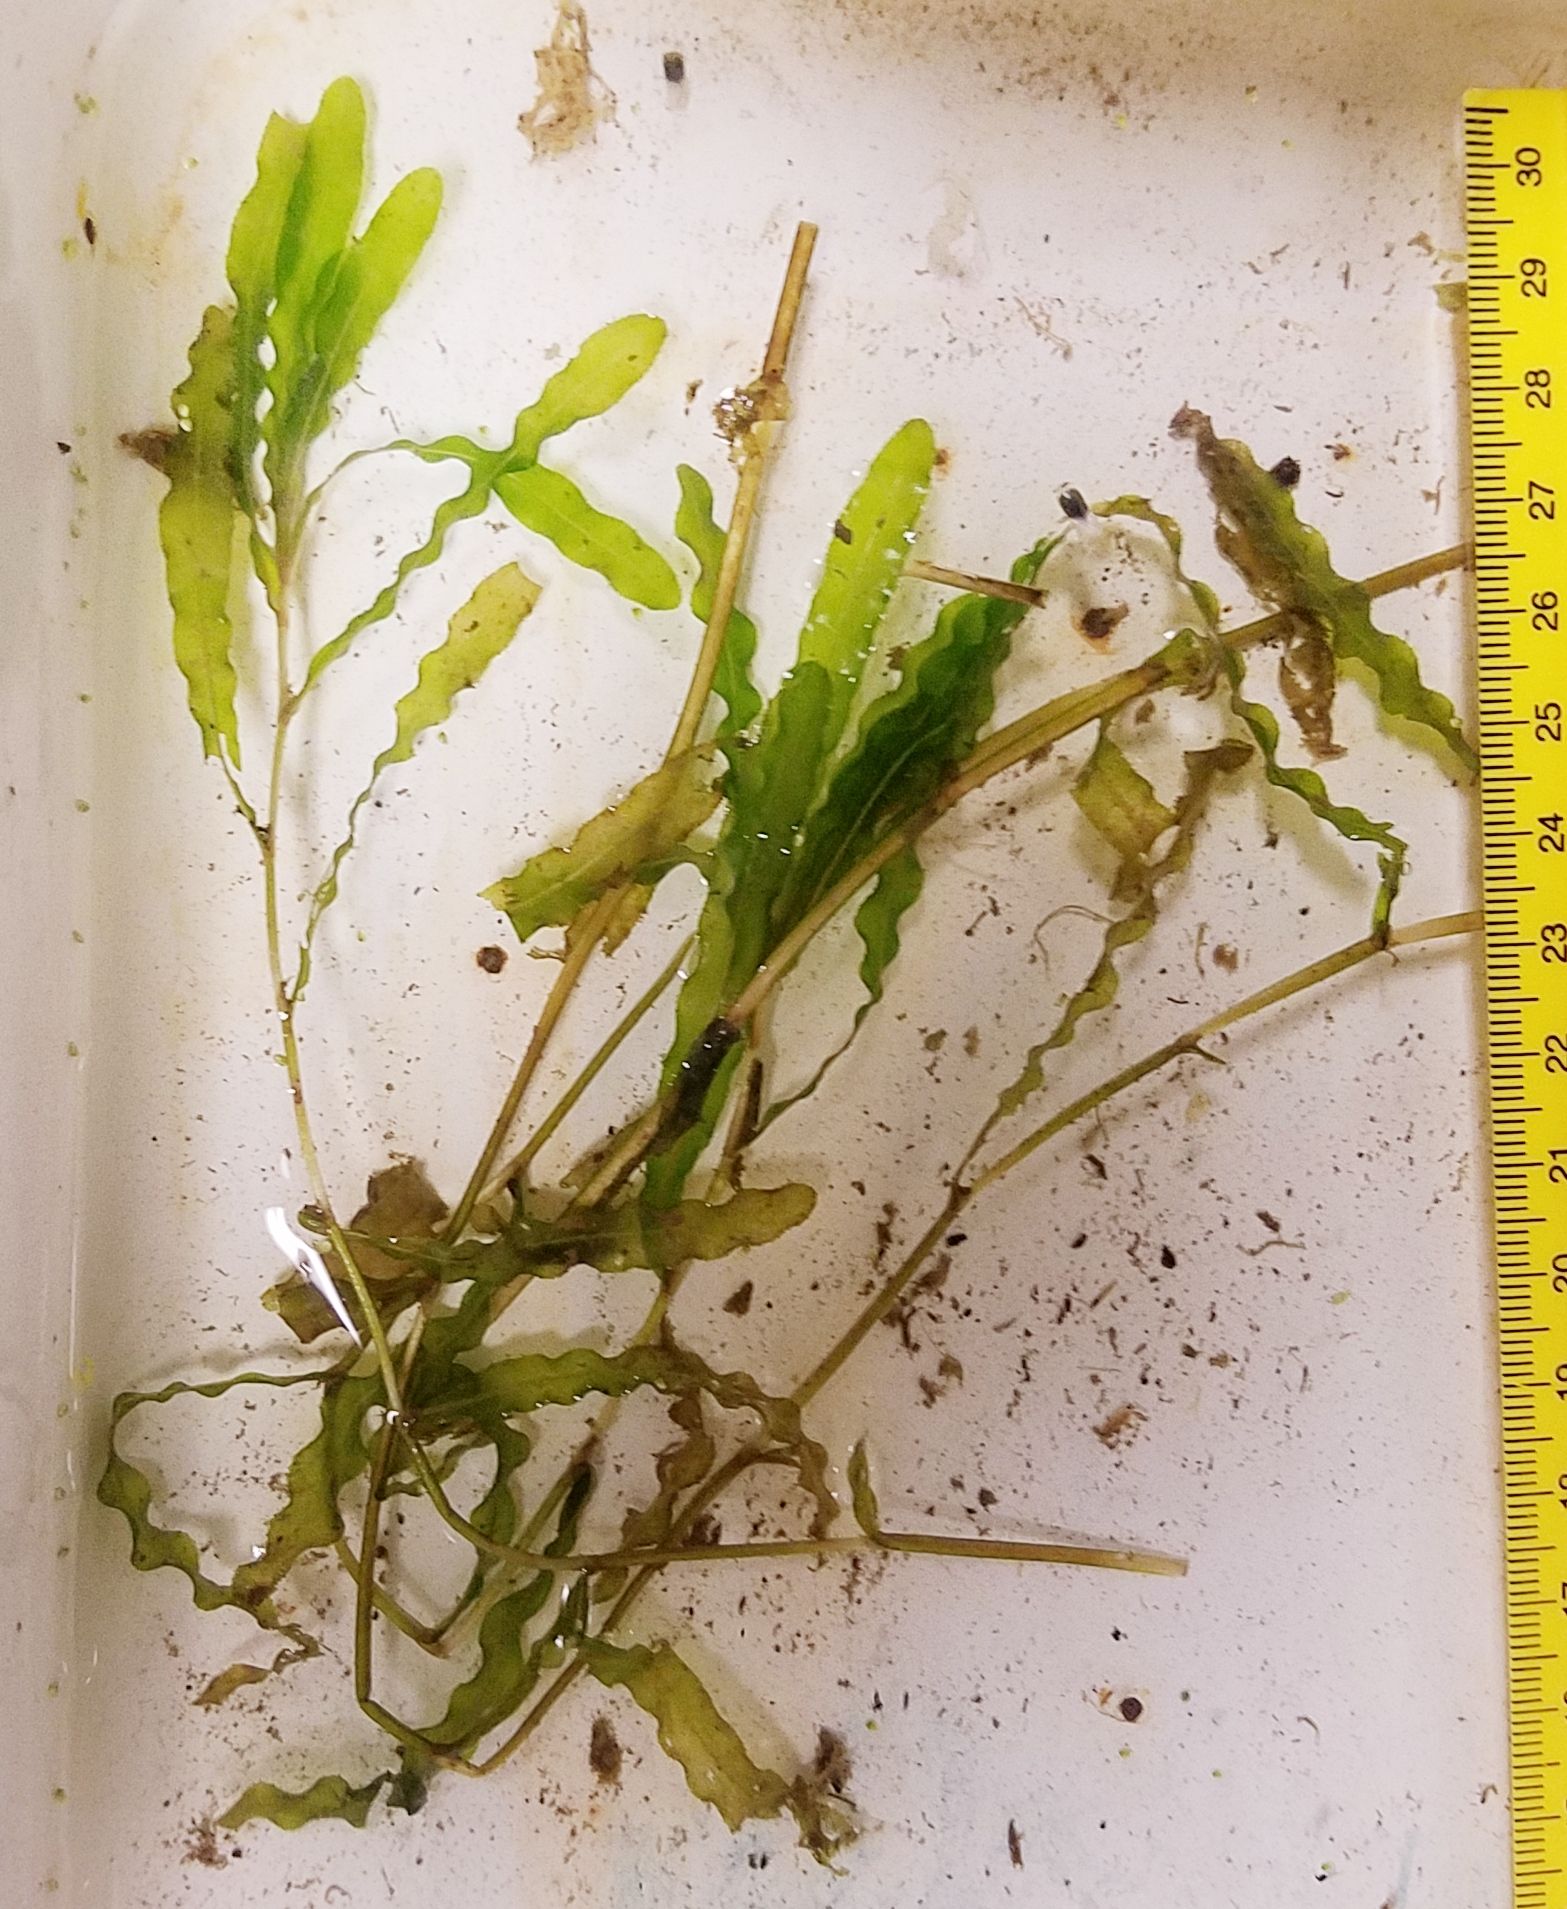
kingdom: Plantae
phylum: Tracheophyta
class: Liliopsida
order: Alismatales
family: Potamogetonaceae
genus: Potamogeton
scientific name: Potamogeton crispus
